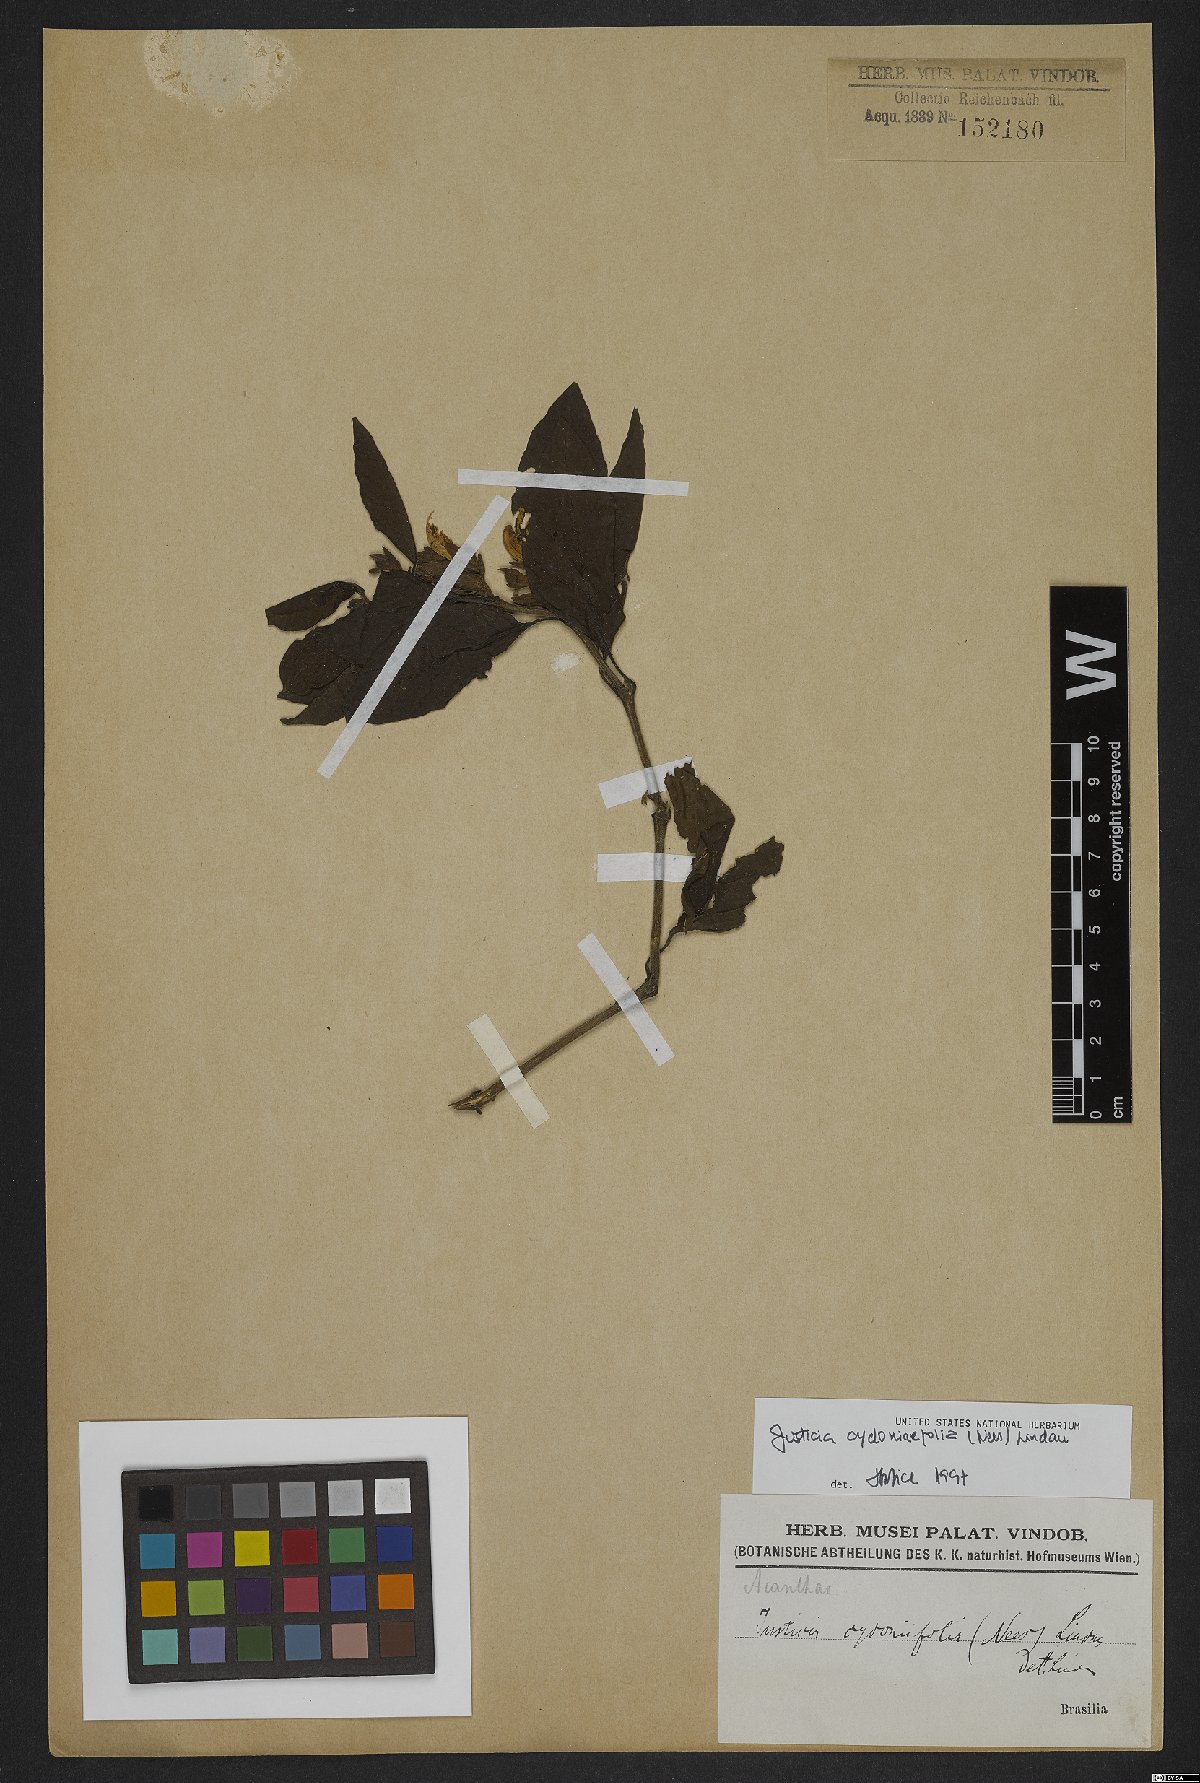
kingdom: Plantae
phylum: Tracheophyta
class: Magnoliopsida
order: Lamiales
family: Acanthaceae
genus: Justicia
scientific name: Justicia cydoniifolia
